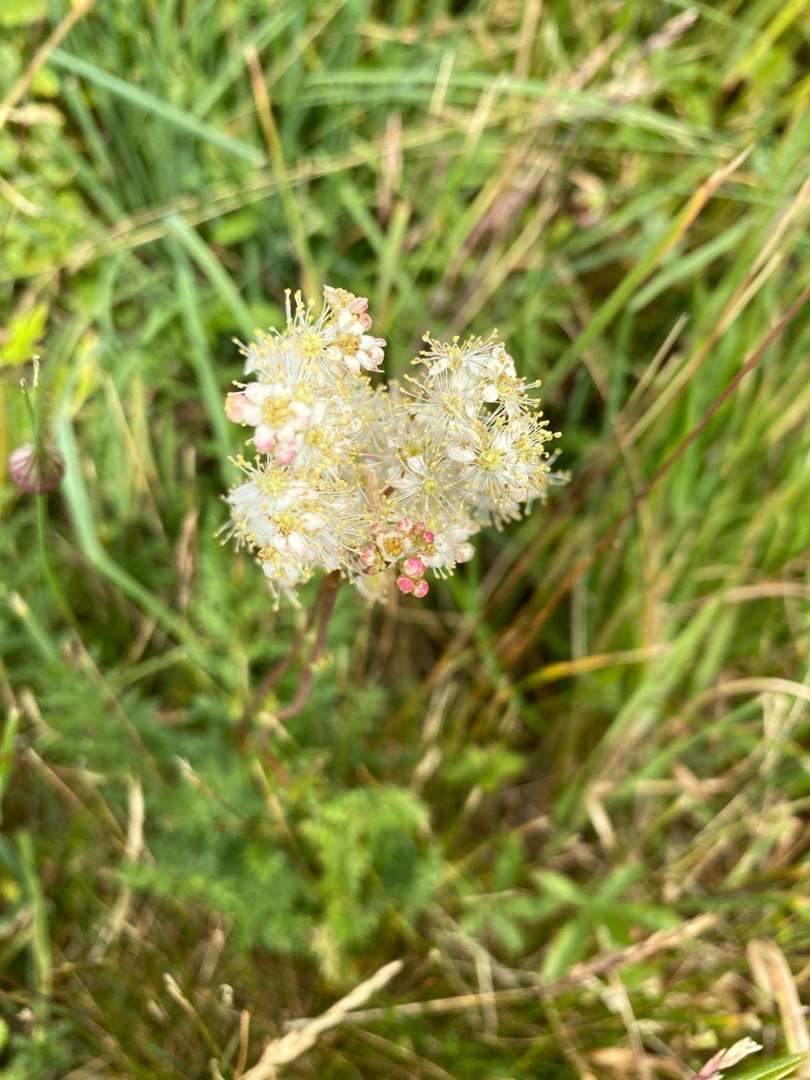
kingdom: Plantae
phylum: Tracheophyta
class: Magnoliopsida
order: Rosales
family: Rosaceae
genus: Filipendula
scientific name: Filipendula vulgaris
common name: Knoldet mjødurt
